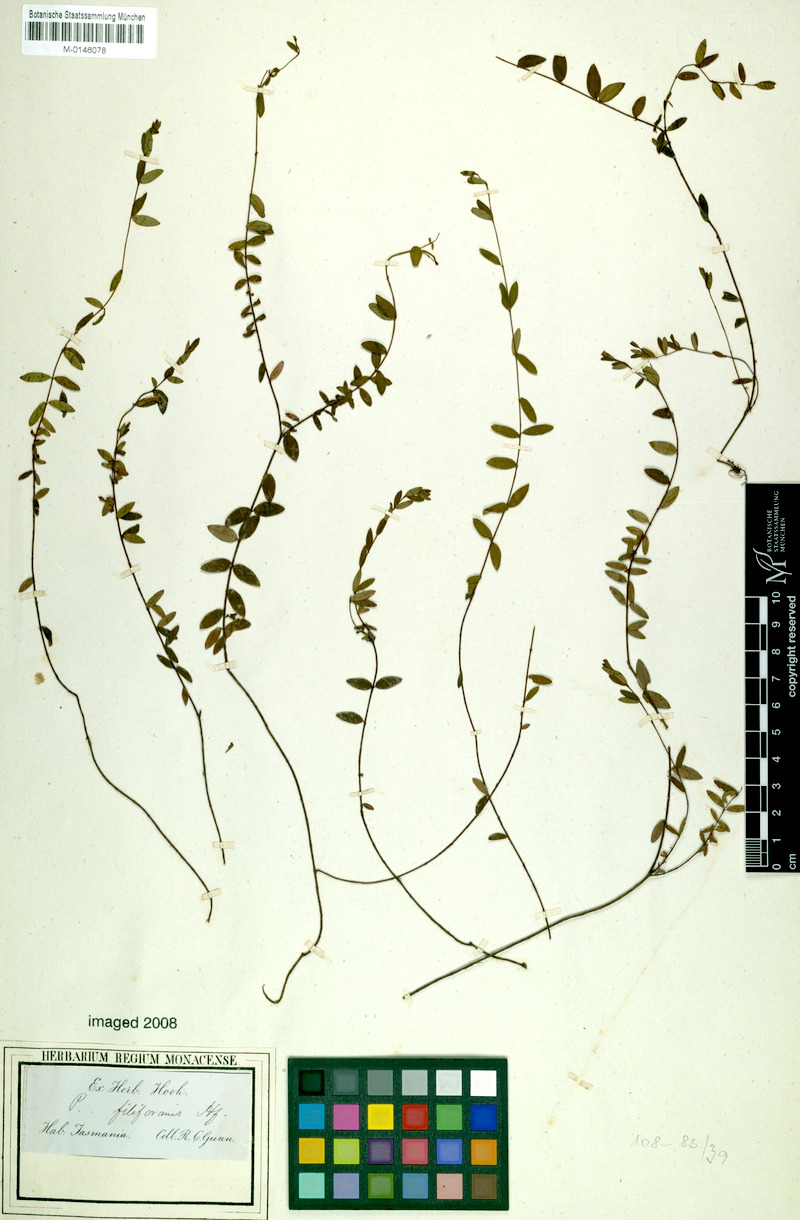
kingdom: Plantae
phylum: Tracheophyta
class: Magnoliopsida
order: Malvales
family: Thymelaeaceae
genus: Pimelea
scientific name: Pimelea filiformis
